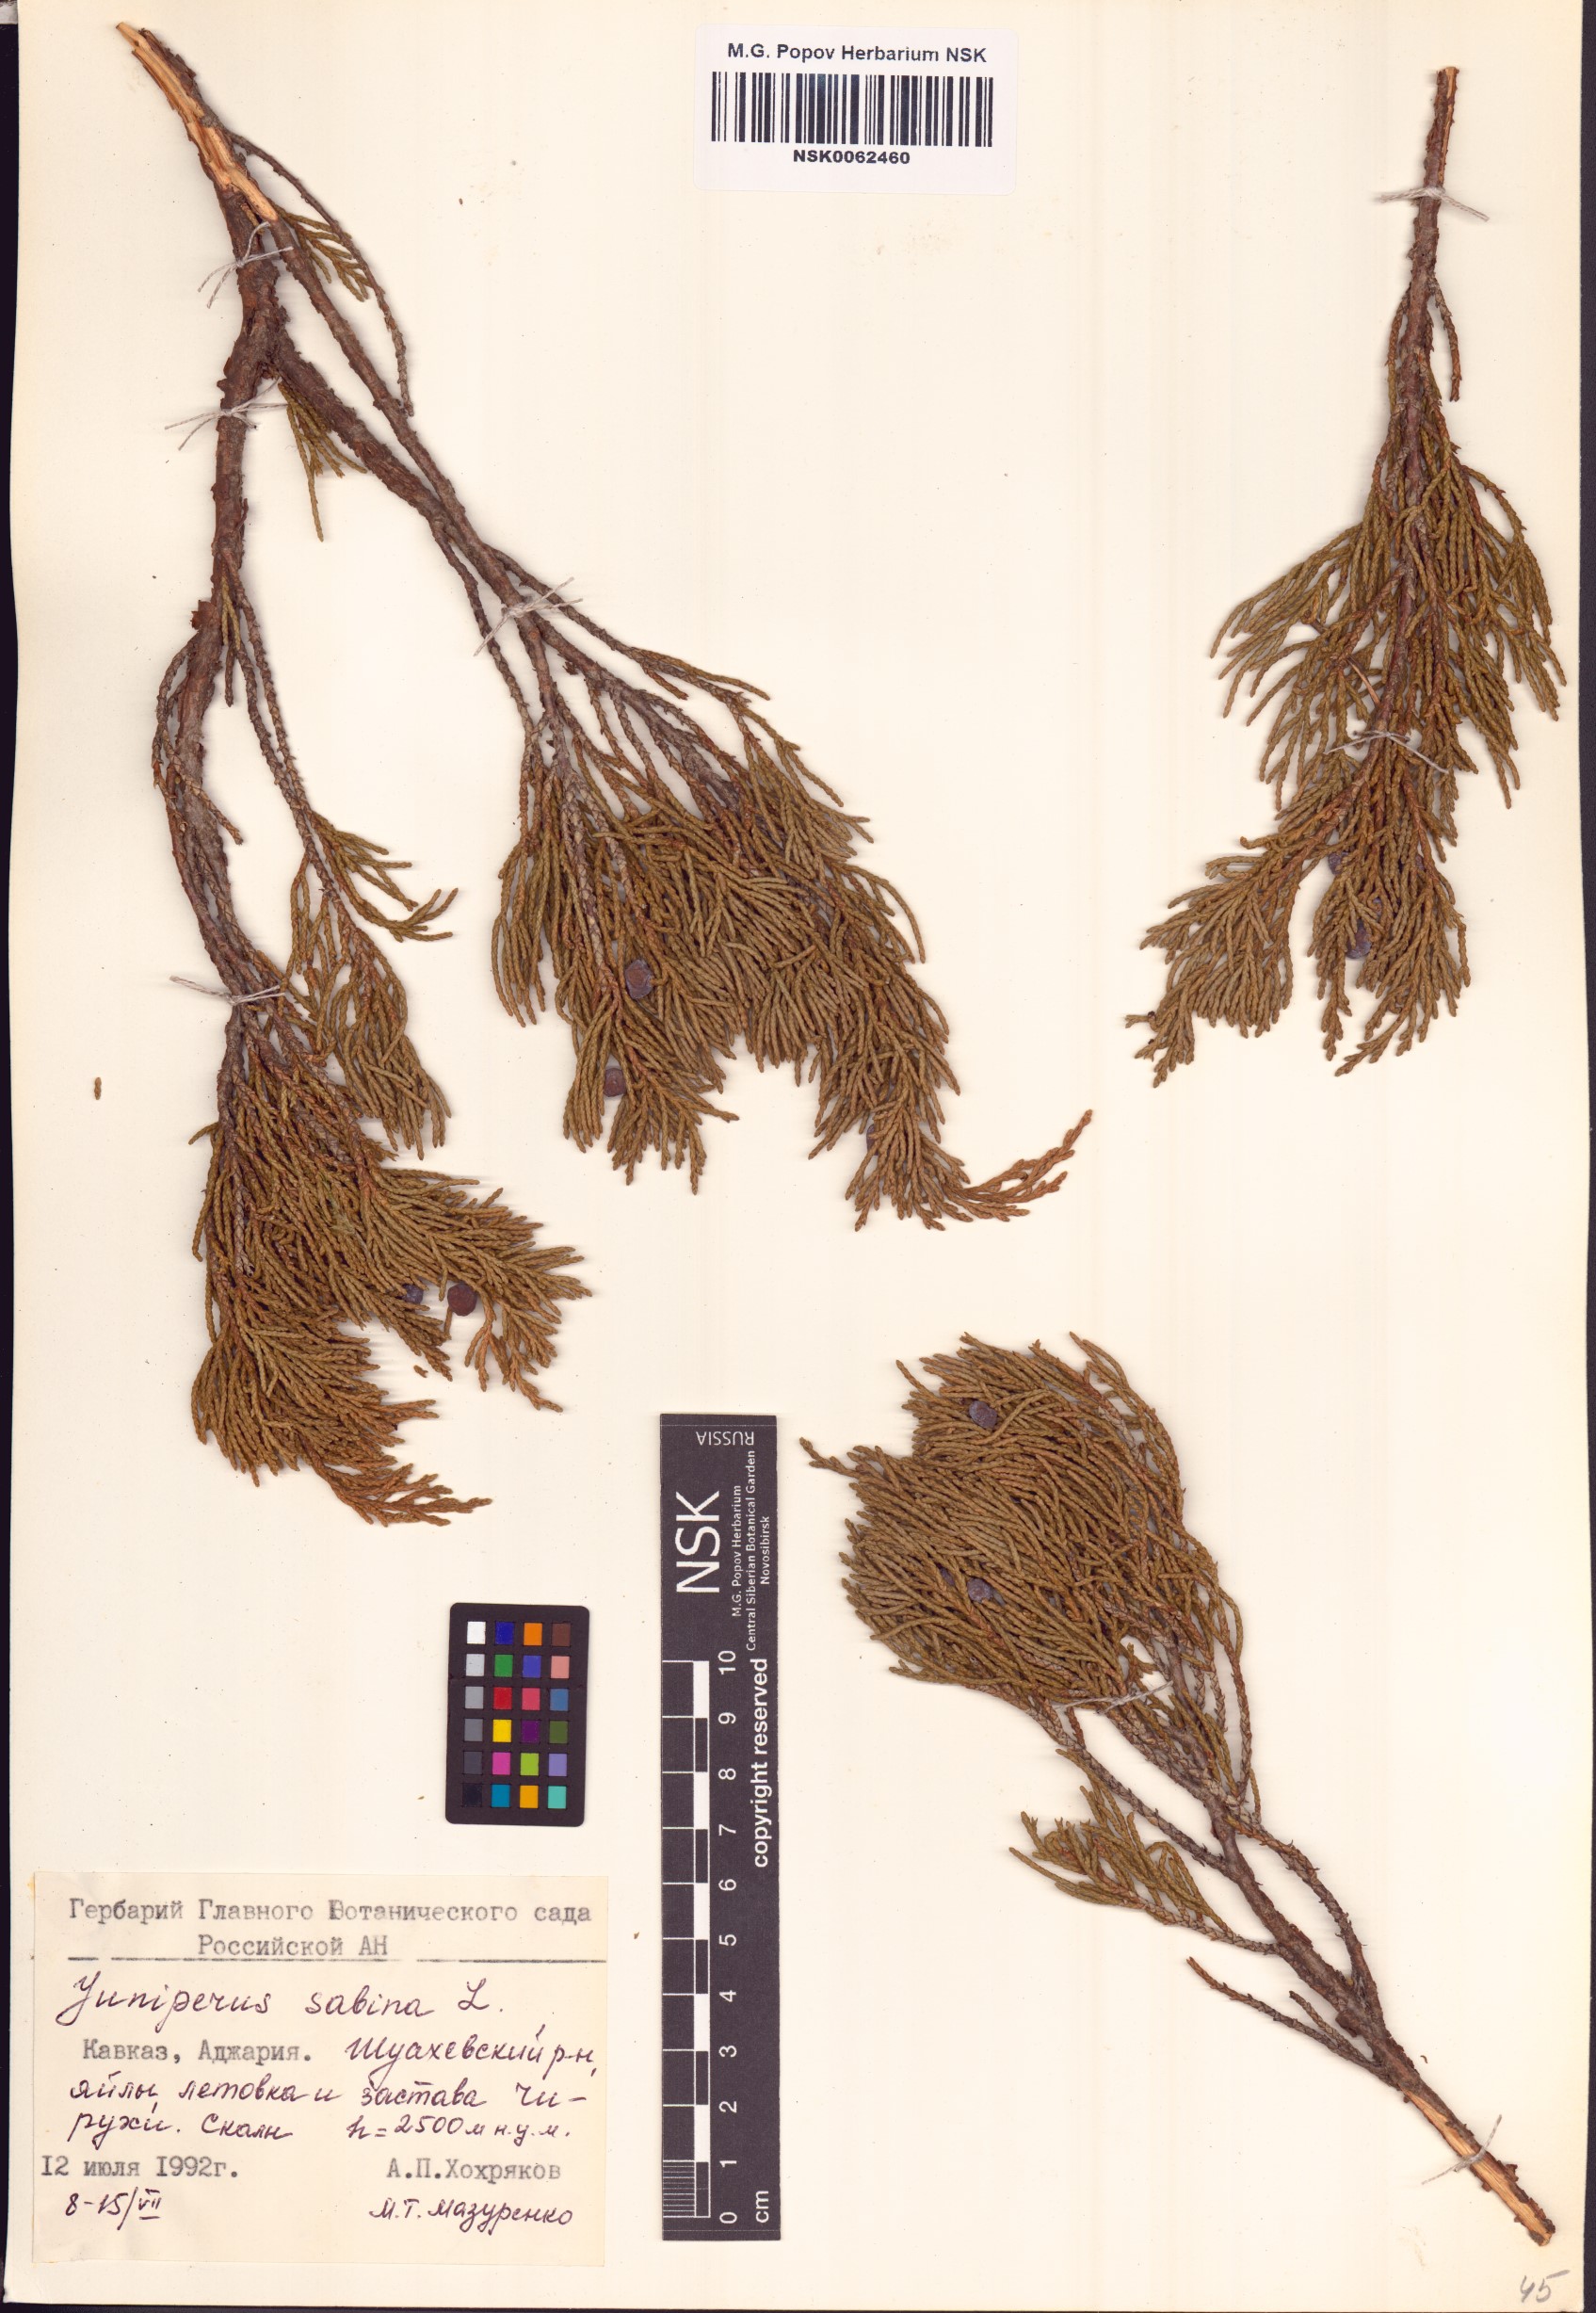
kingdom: Plantae
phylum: Tracheophyta
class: Pinopsida
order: Pinales
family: Cupressaceae
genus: Juniperus
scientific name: Juniperus sabina
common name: Savin
